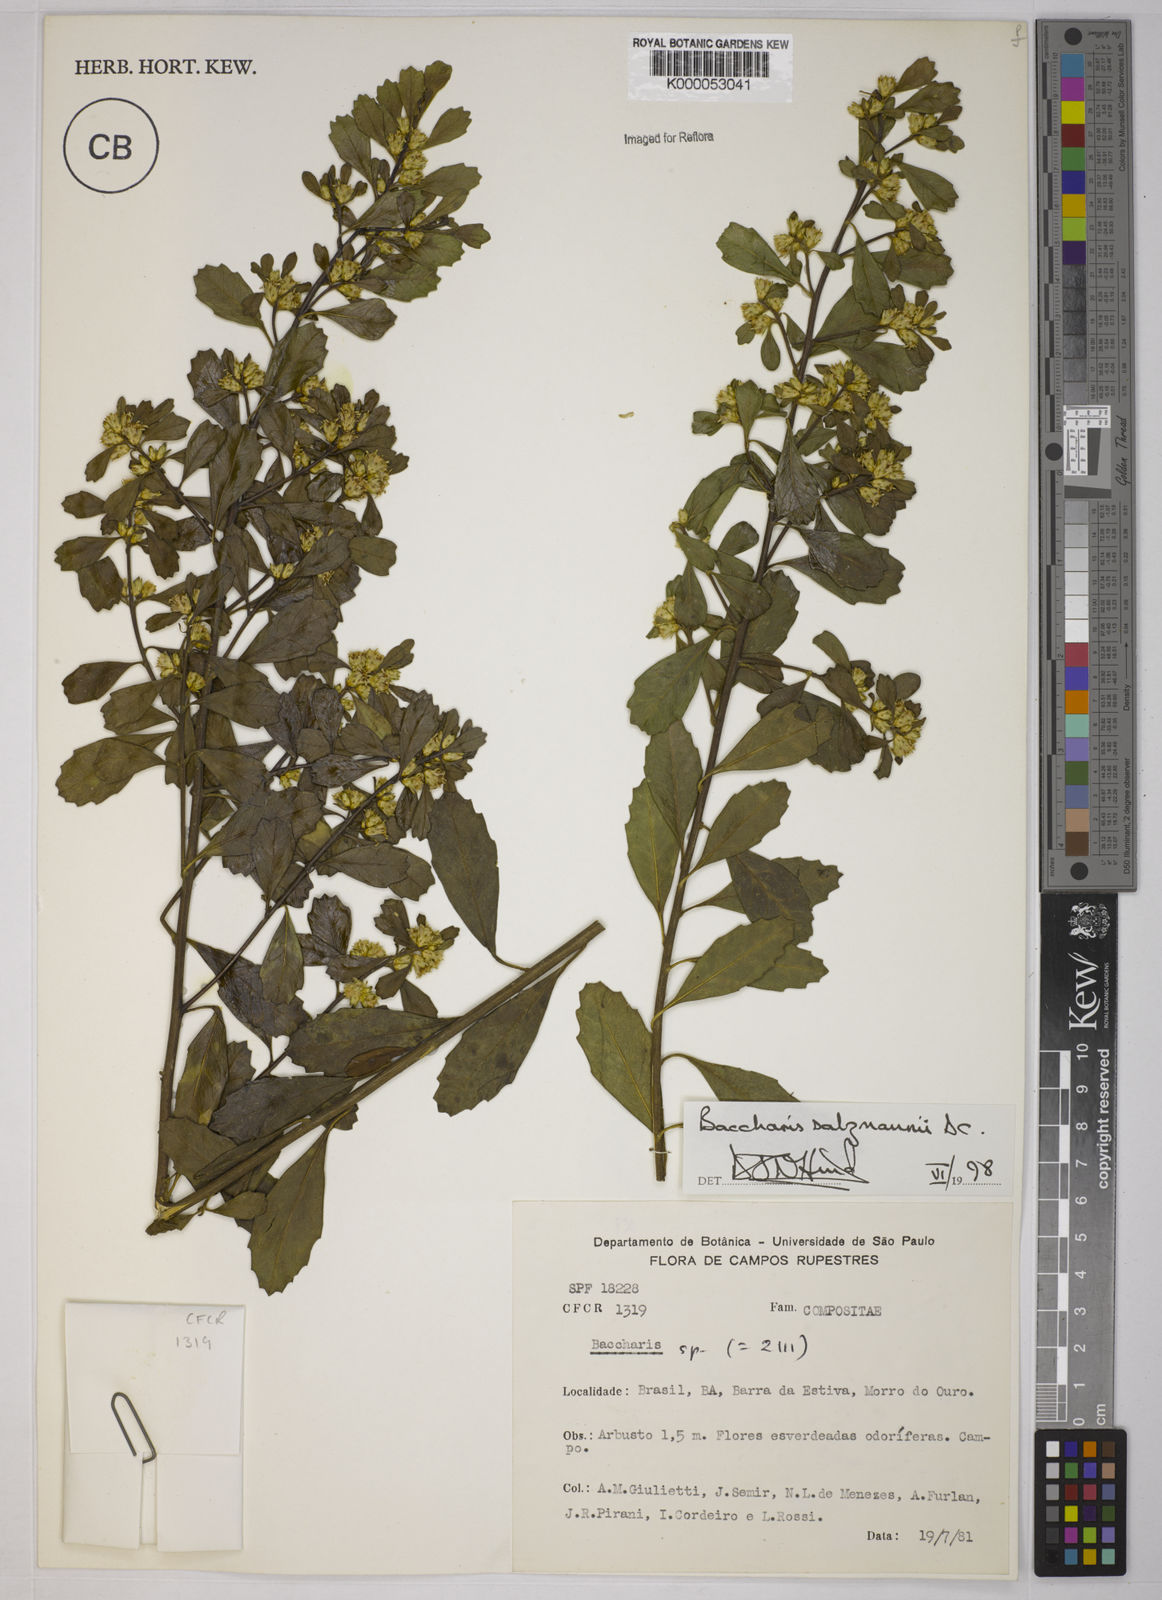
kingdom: Plantae
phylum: Tracheophyta
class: Magnoliopsida
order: Asterales
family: Asteraceae
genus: Baccharis
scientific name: Baccharis retusa
